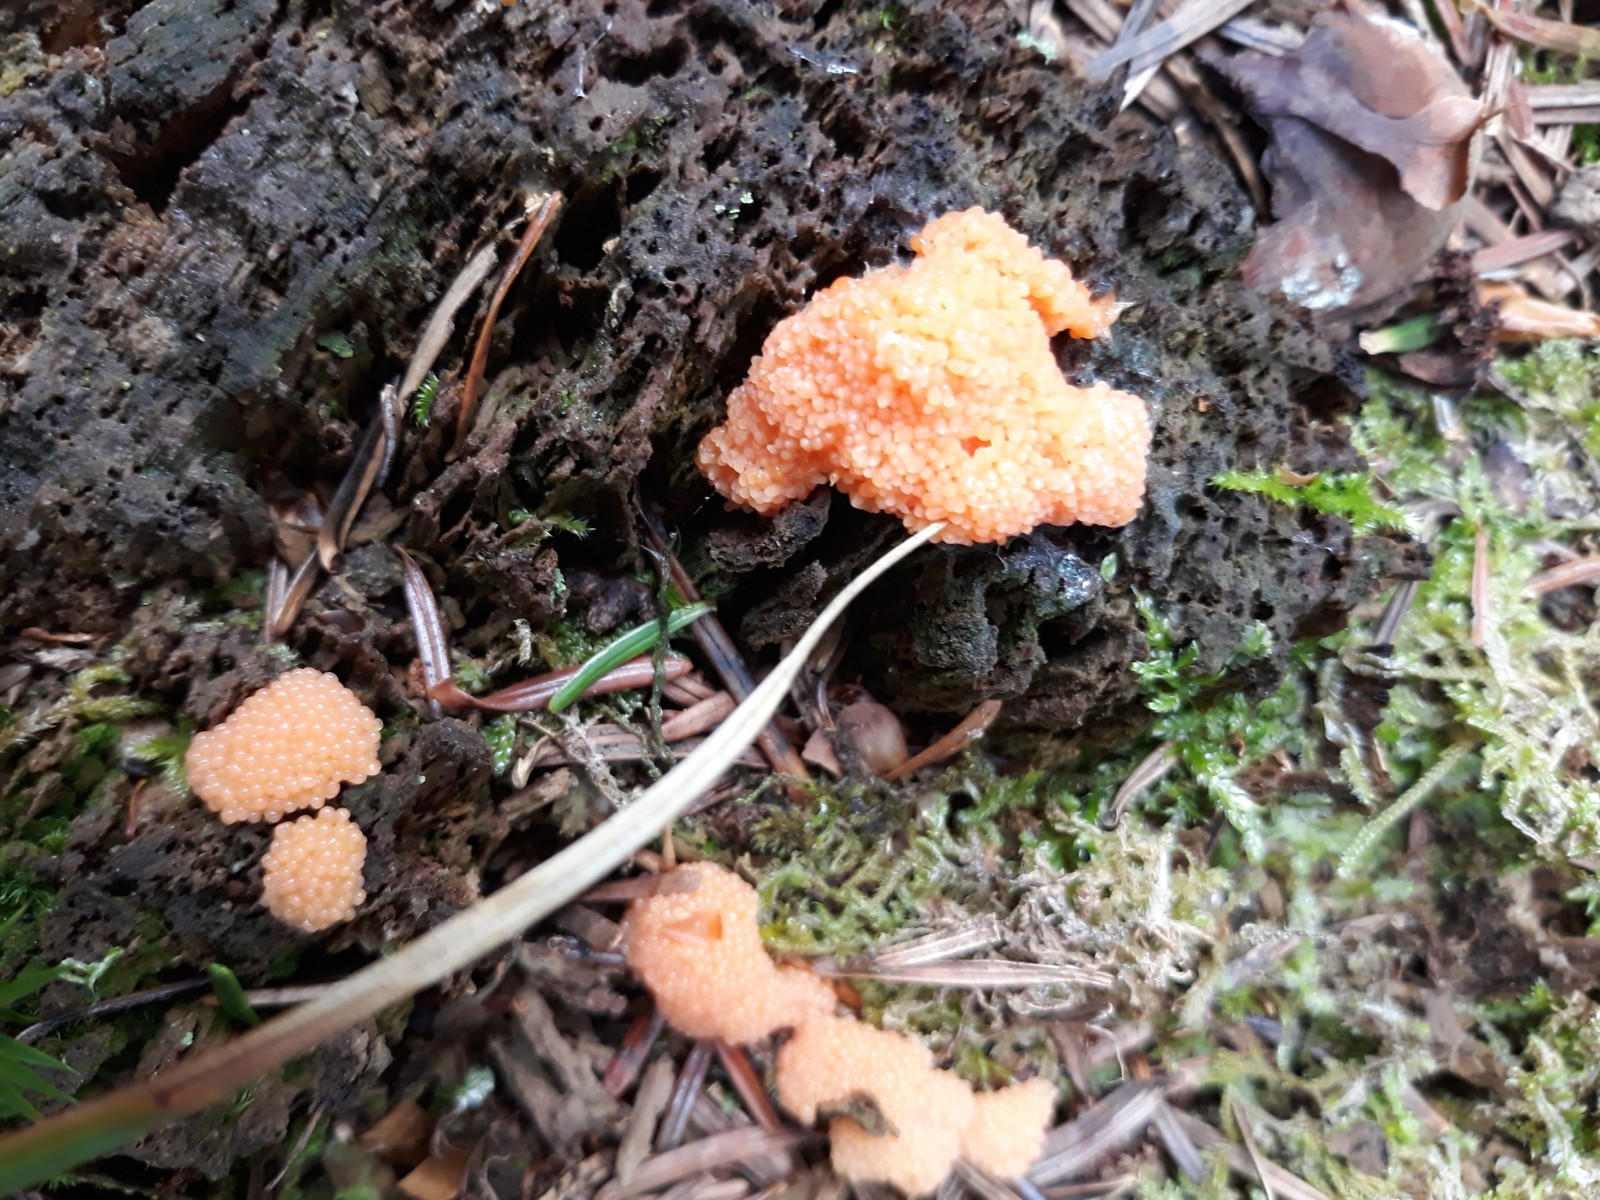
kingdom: Protozoa
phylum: Mycetozoa
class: Myxomycetes
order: Cribrariales
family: Tubiferaceae
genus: Tubifera
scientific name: Tubifera ferruginosa
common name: kanel-støvrør
